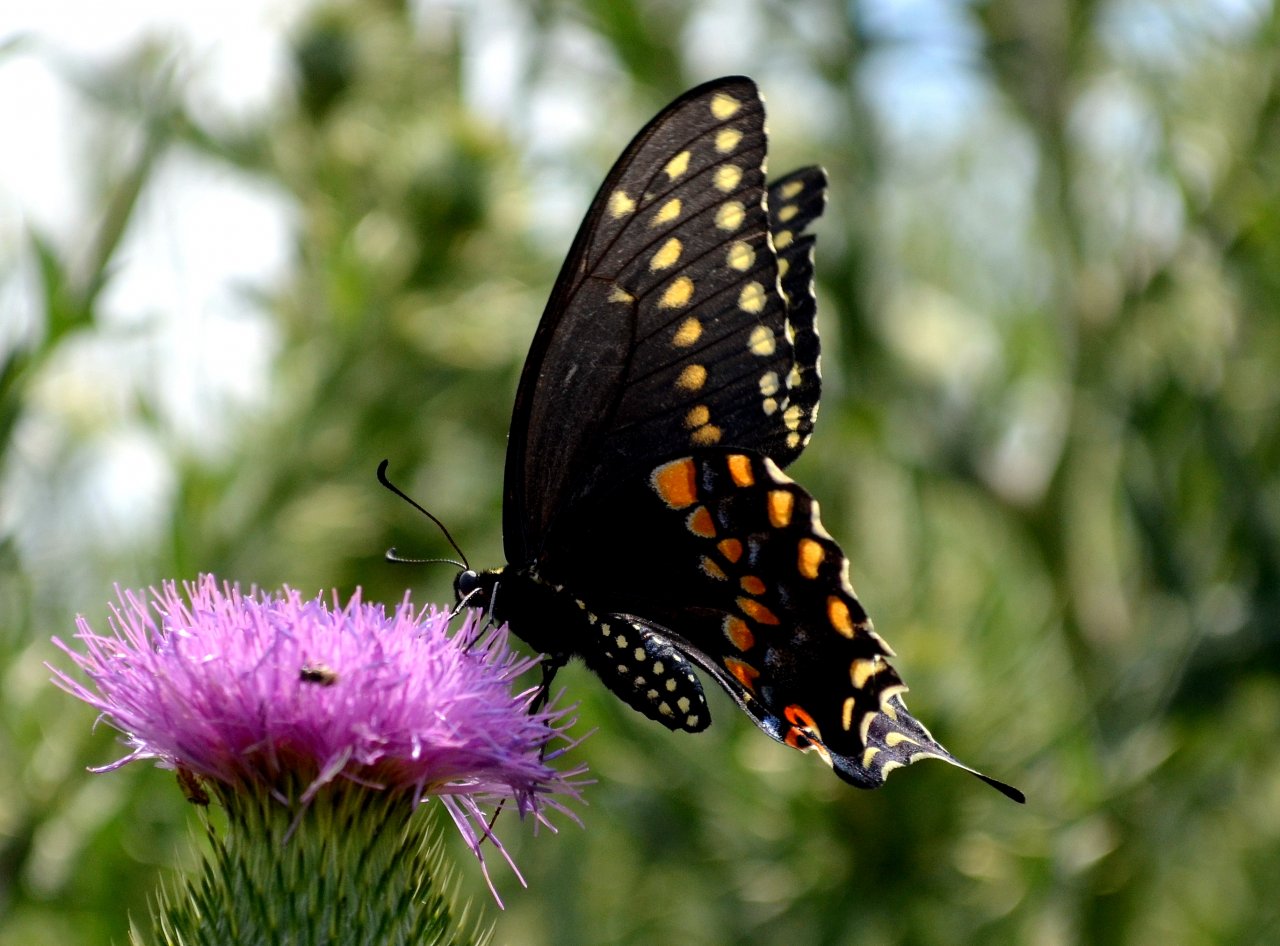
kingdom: Animalia
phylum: Arthropoda
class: Insecta
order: Lepidoptera
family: Papilionidae
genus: Papilio
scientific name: Papilio polyxenes
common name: Black Swallowtail
